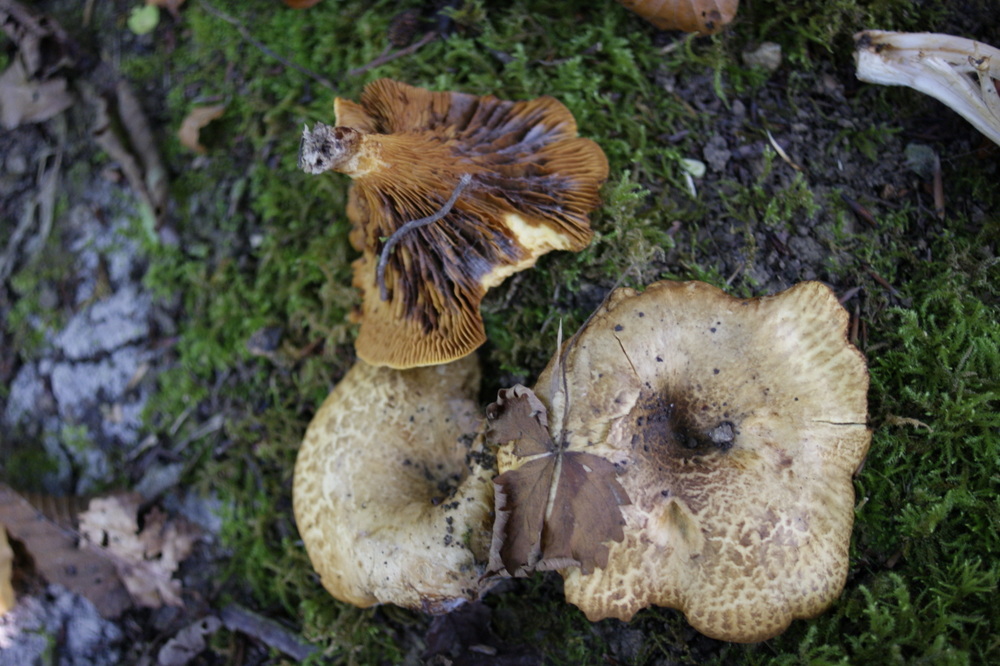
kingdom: Fungi
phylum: Basidiomycota
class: Agaricomycetes
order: Boletales
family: Paxillaceae
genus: Paxillus
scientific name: Paxillus rubicundulus
